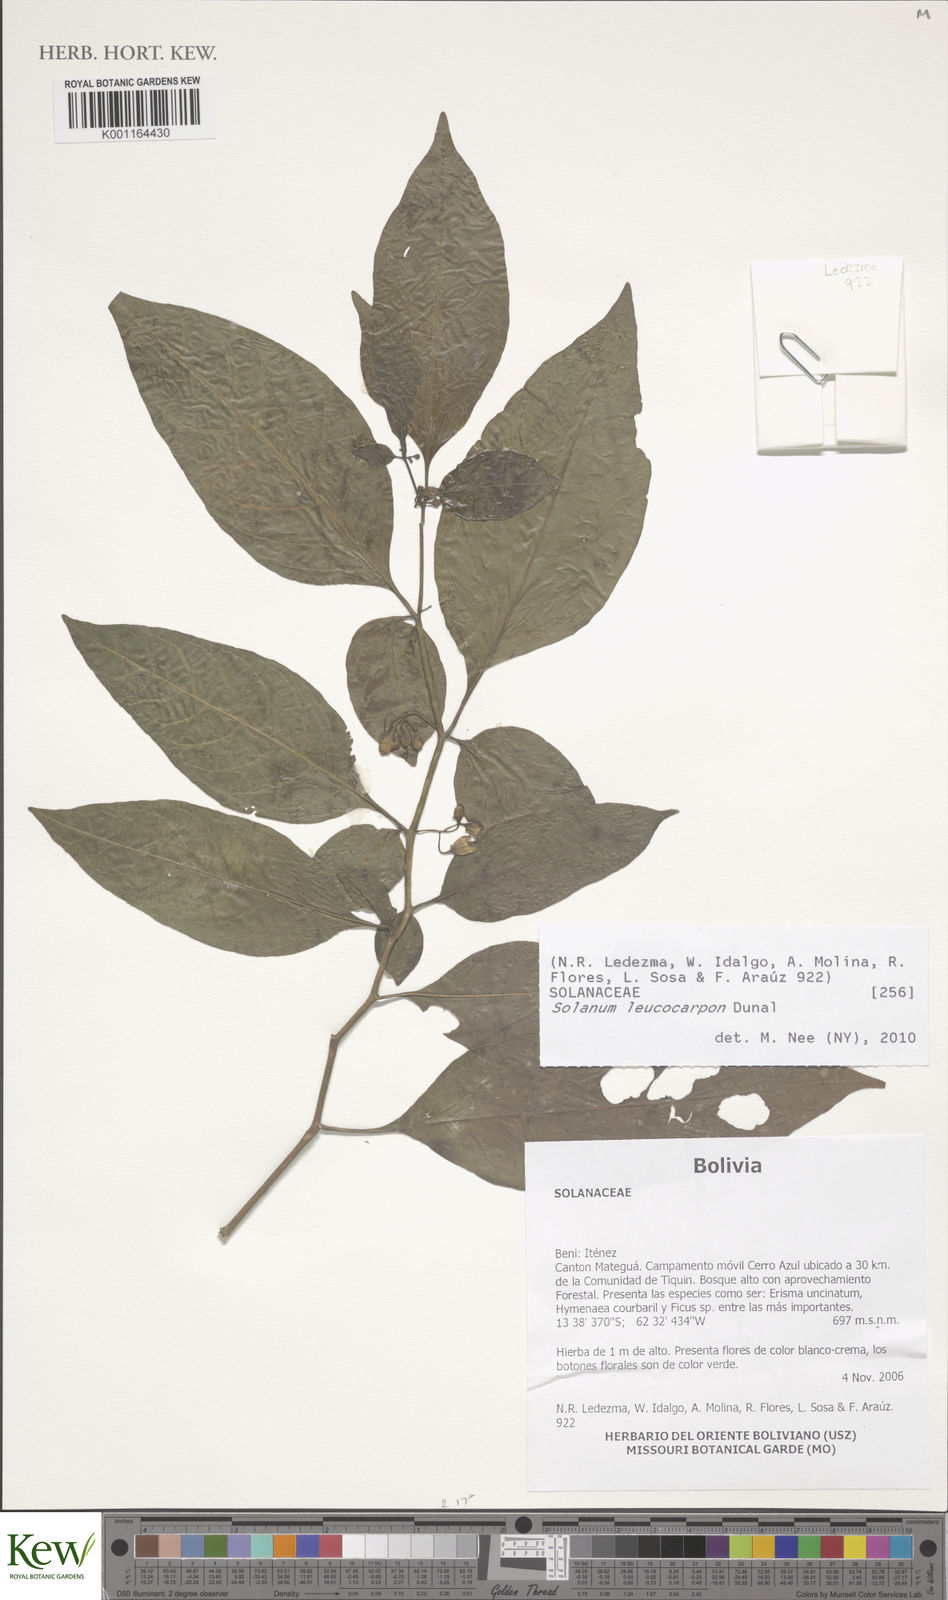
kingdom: Plantae
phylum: Tracheophyta
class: Magnoliopsida
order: Solanales
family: Solanaceae
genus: Solanum
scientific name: Solanum leucocarpon
